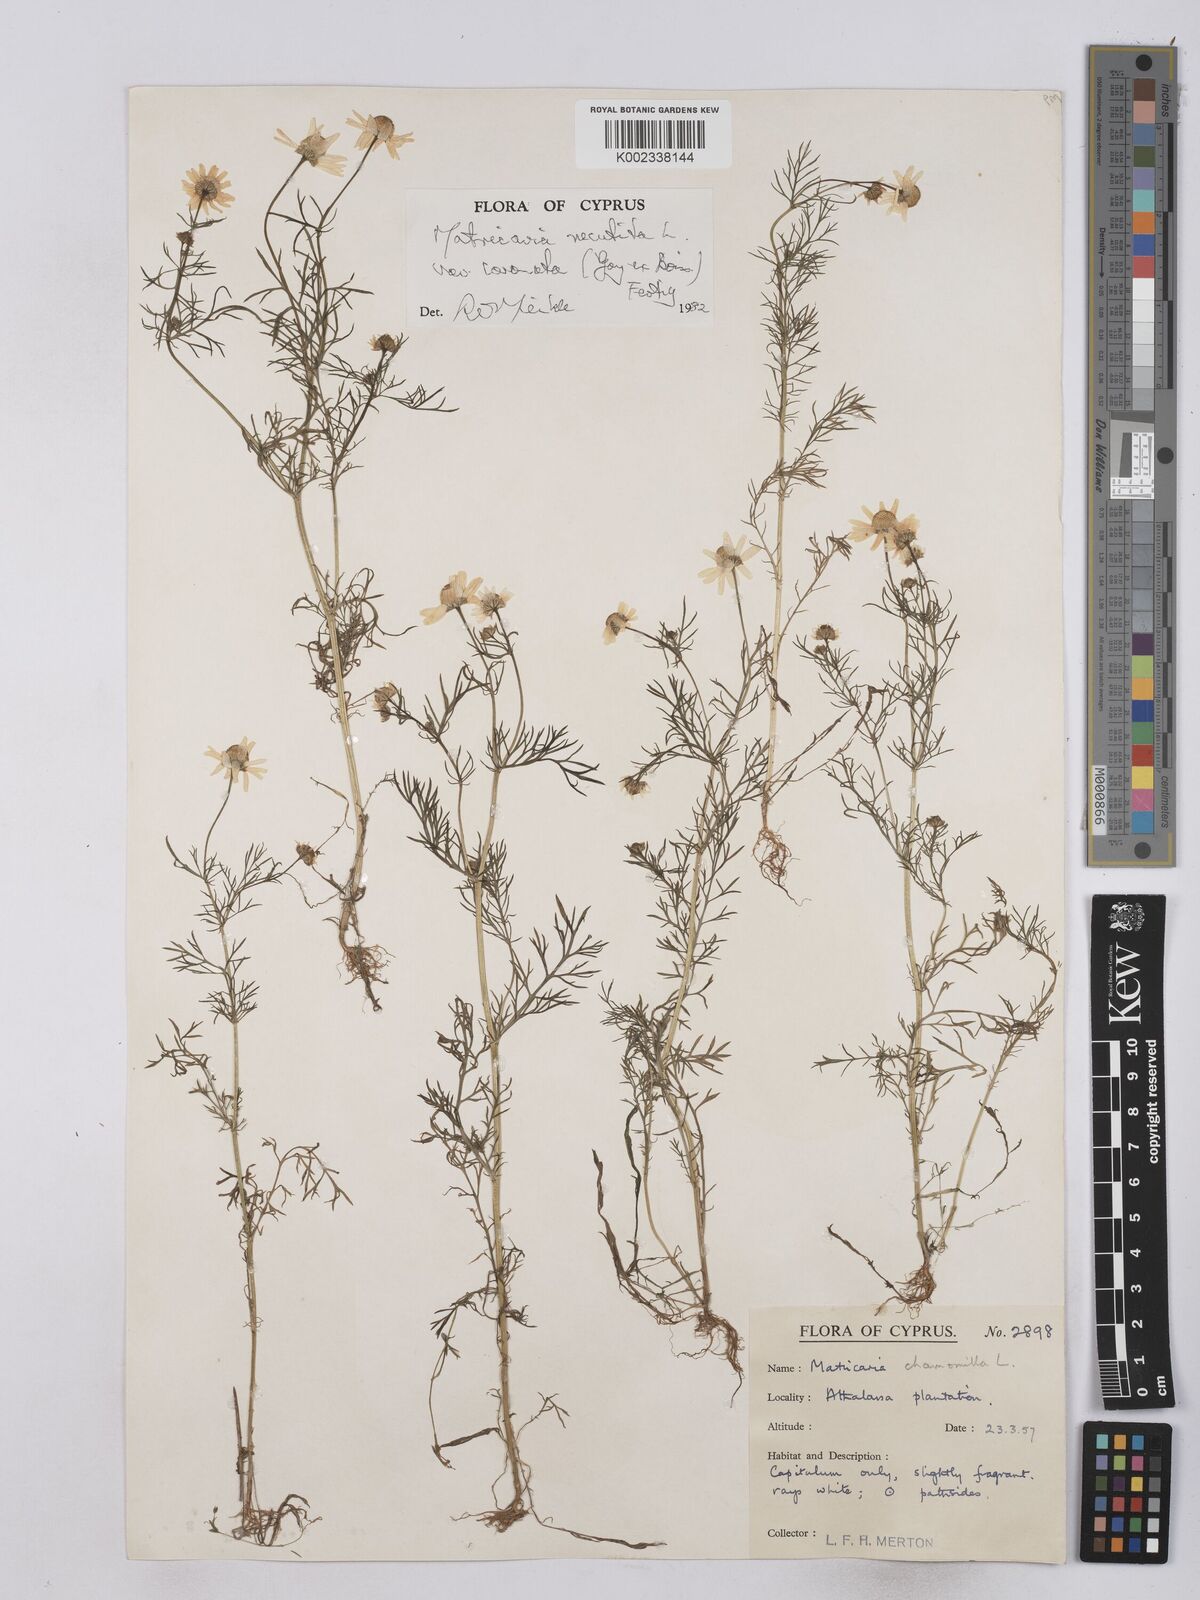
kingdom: Plantae
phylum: Tracheophyta
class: Magnoliopsida
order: Asterales
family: Asteraceae
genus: Matricaria
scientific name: Matricaria chamomilla
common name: Scented mayweed
